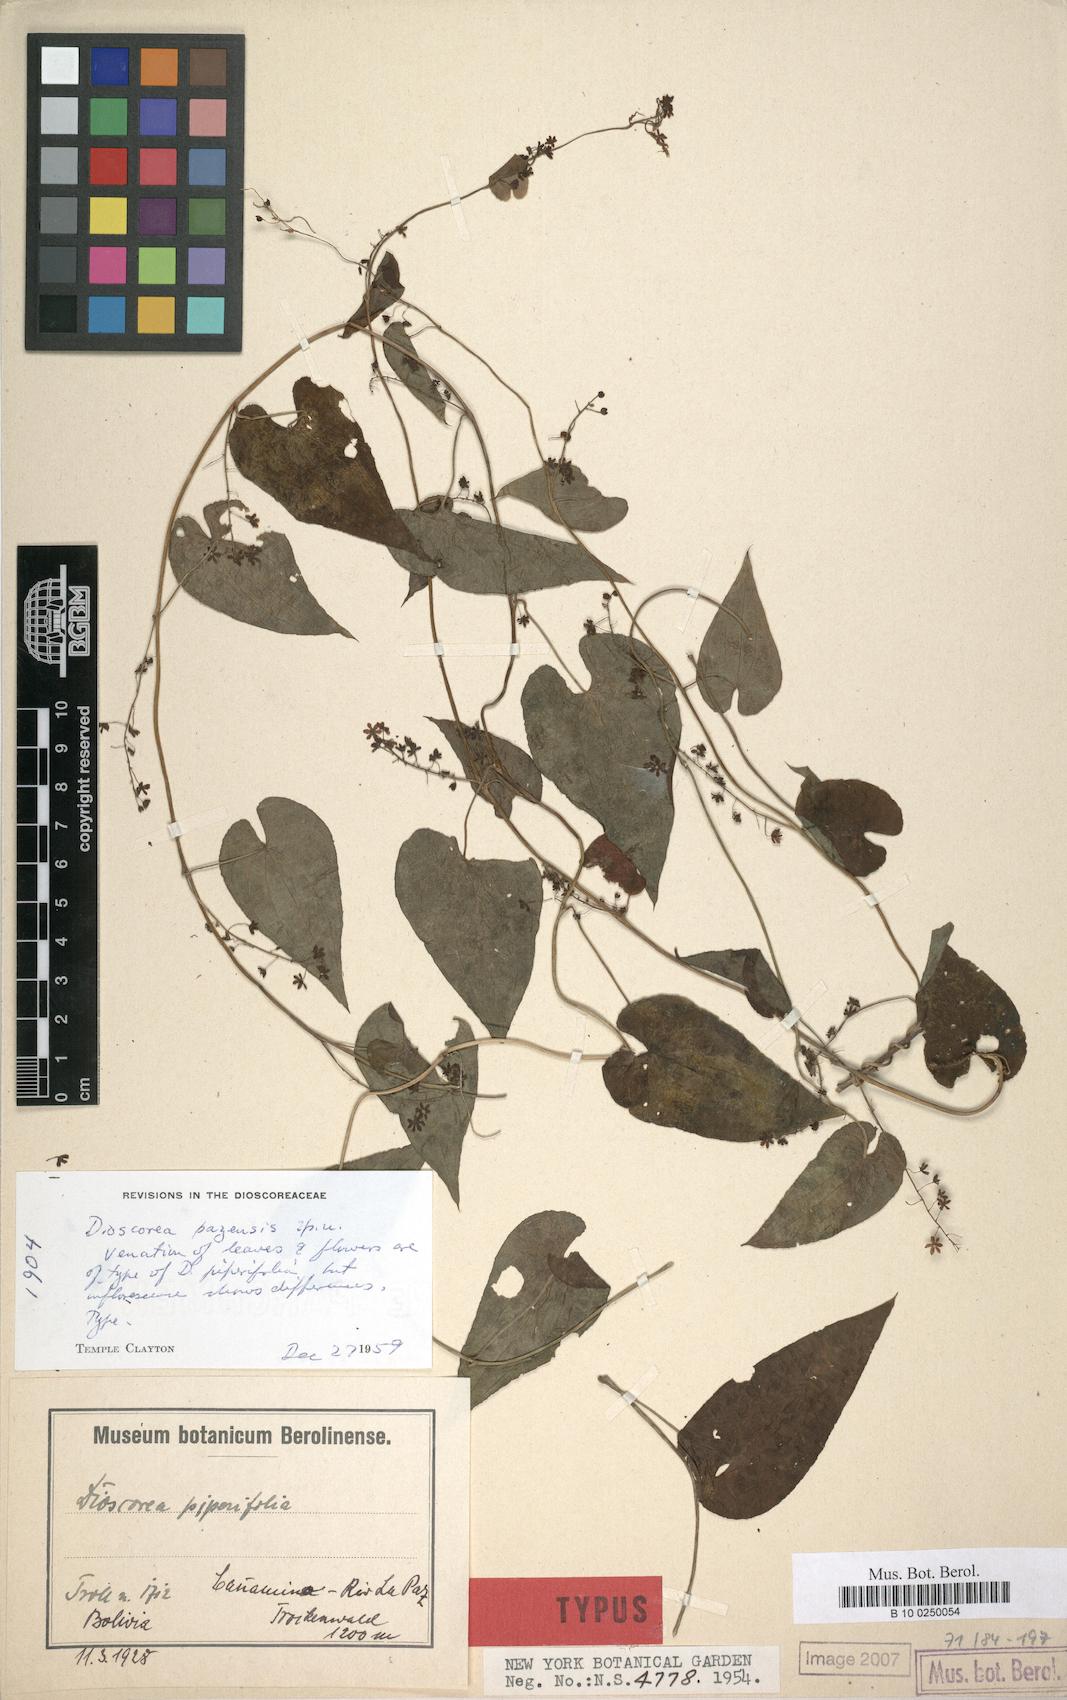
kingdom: Plantae
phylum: Tracheophyta
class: Liliopsida
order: Dioscoreales
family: Dioscoreaceae
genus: Dioscorea
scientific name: Dioscorea
